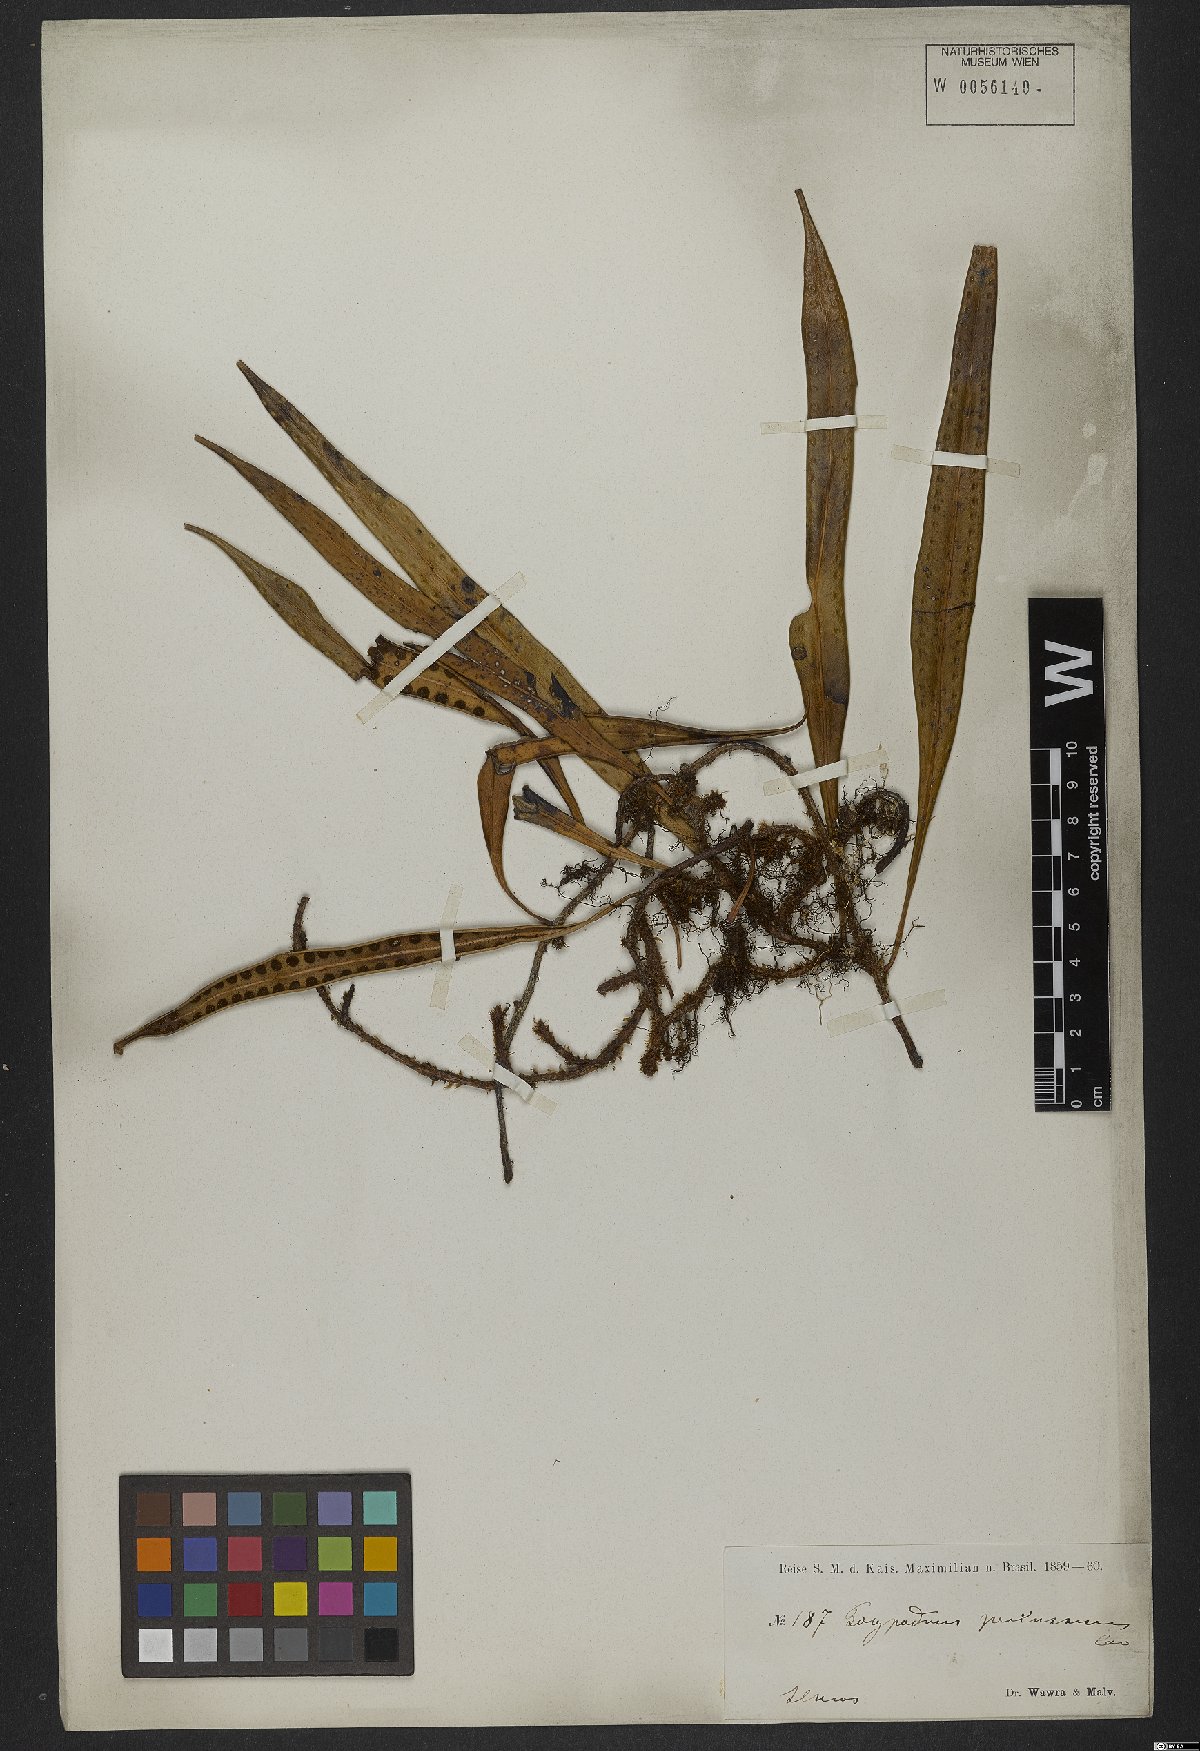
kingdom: Plantae
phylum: Tracheophyta
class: Polypodiopsida
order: Polypodiales
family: Polypodiaceae
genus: Microgramma
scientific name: Microgramma percussa
